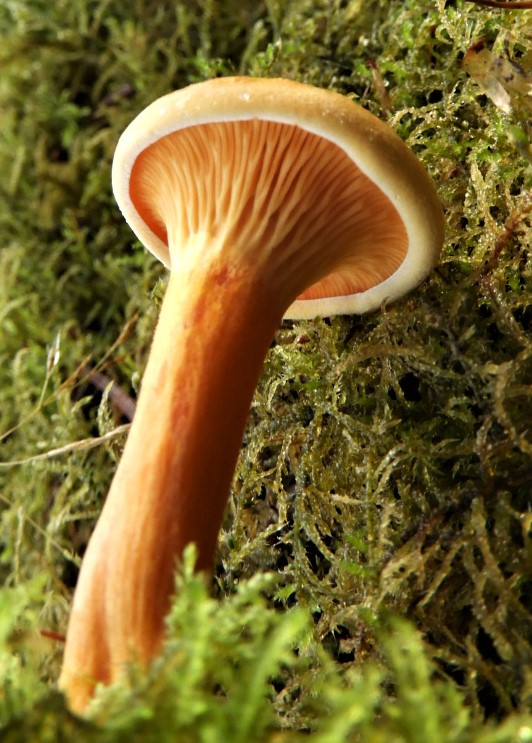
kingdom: Fungi
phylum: Basidiomycota
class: Agaricomycetes
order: Boletales
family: Hygrophoropsidaceae
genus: Hygrophoropsis
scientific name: Hygrophoropsis aurantiaca
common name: almindelig orangekantarel
